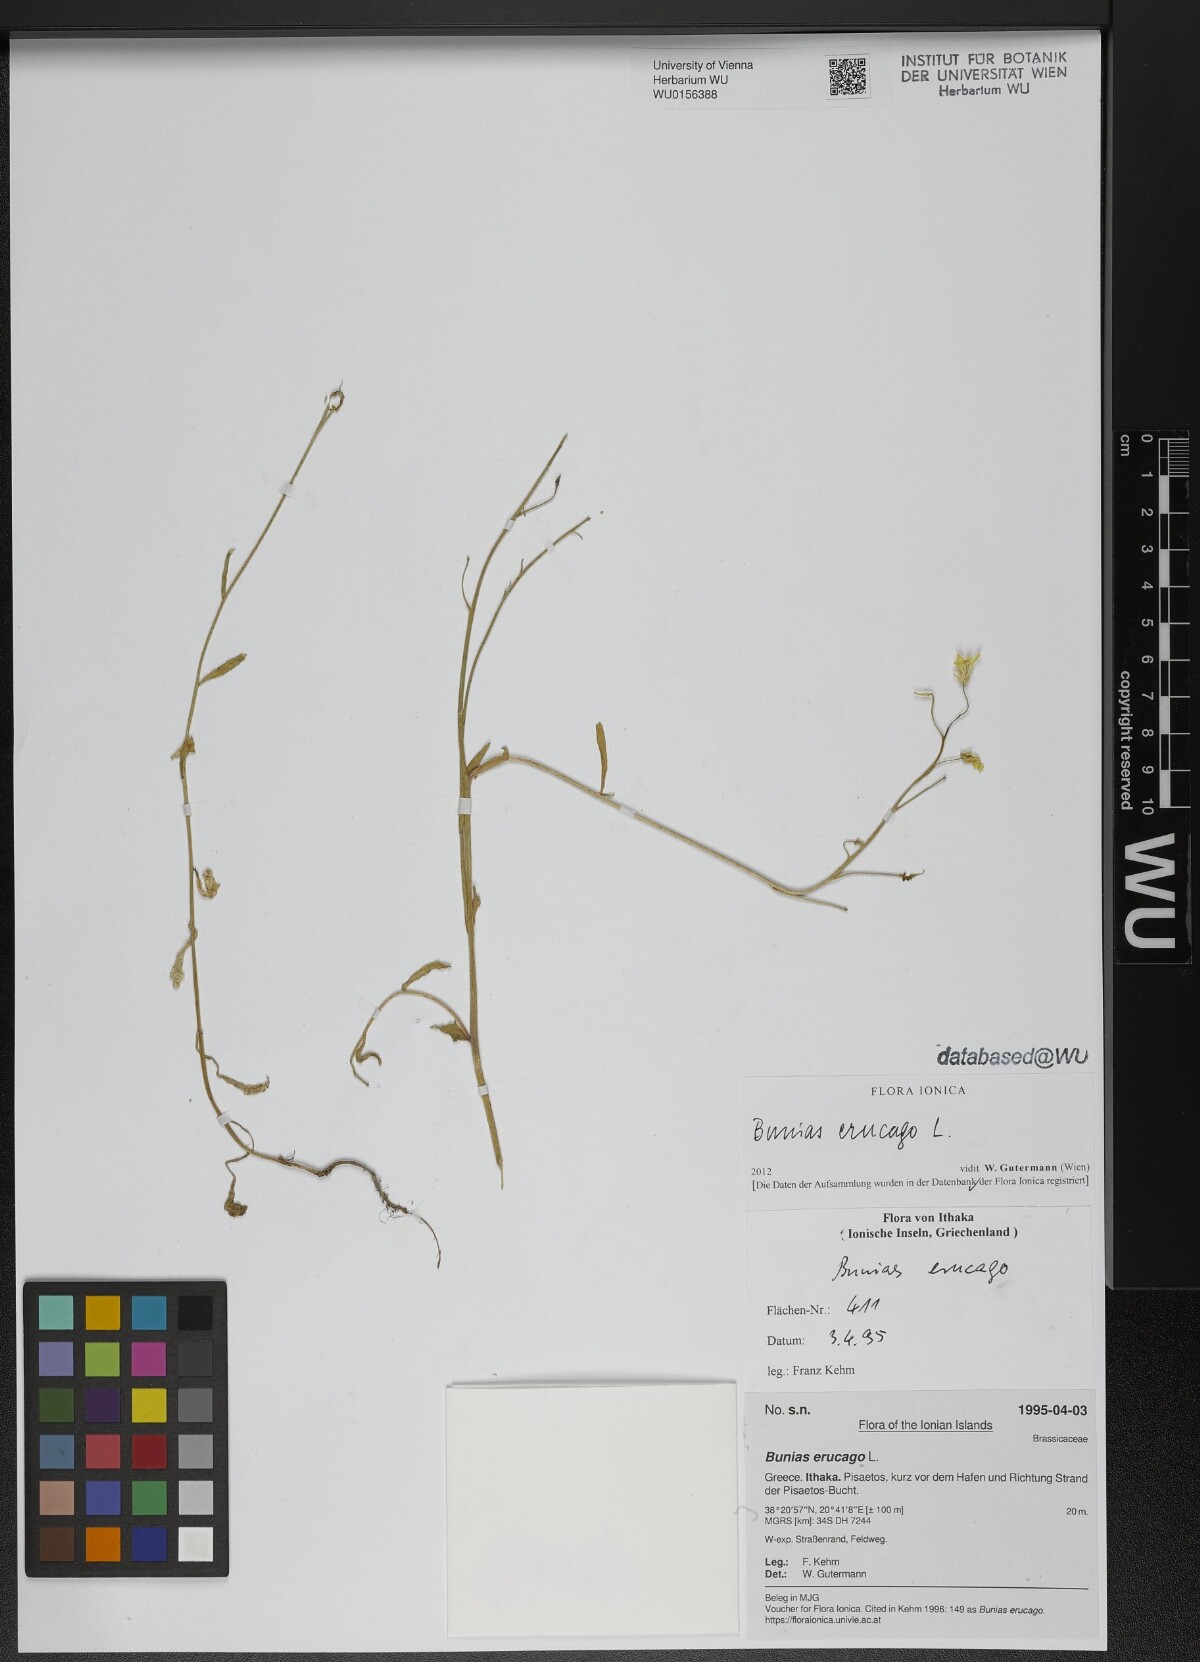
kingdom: Plantae
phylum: Tracheophyta
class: Magnoliopsida
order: Brassicales
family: Brassicaceae
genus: Bunias
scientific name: Bunias erucago
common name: Southern warty-cabbage
